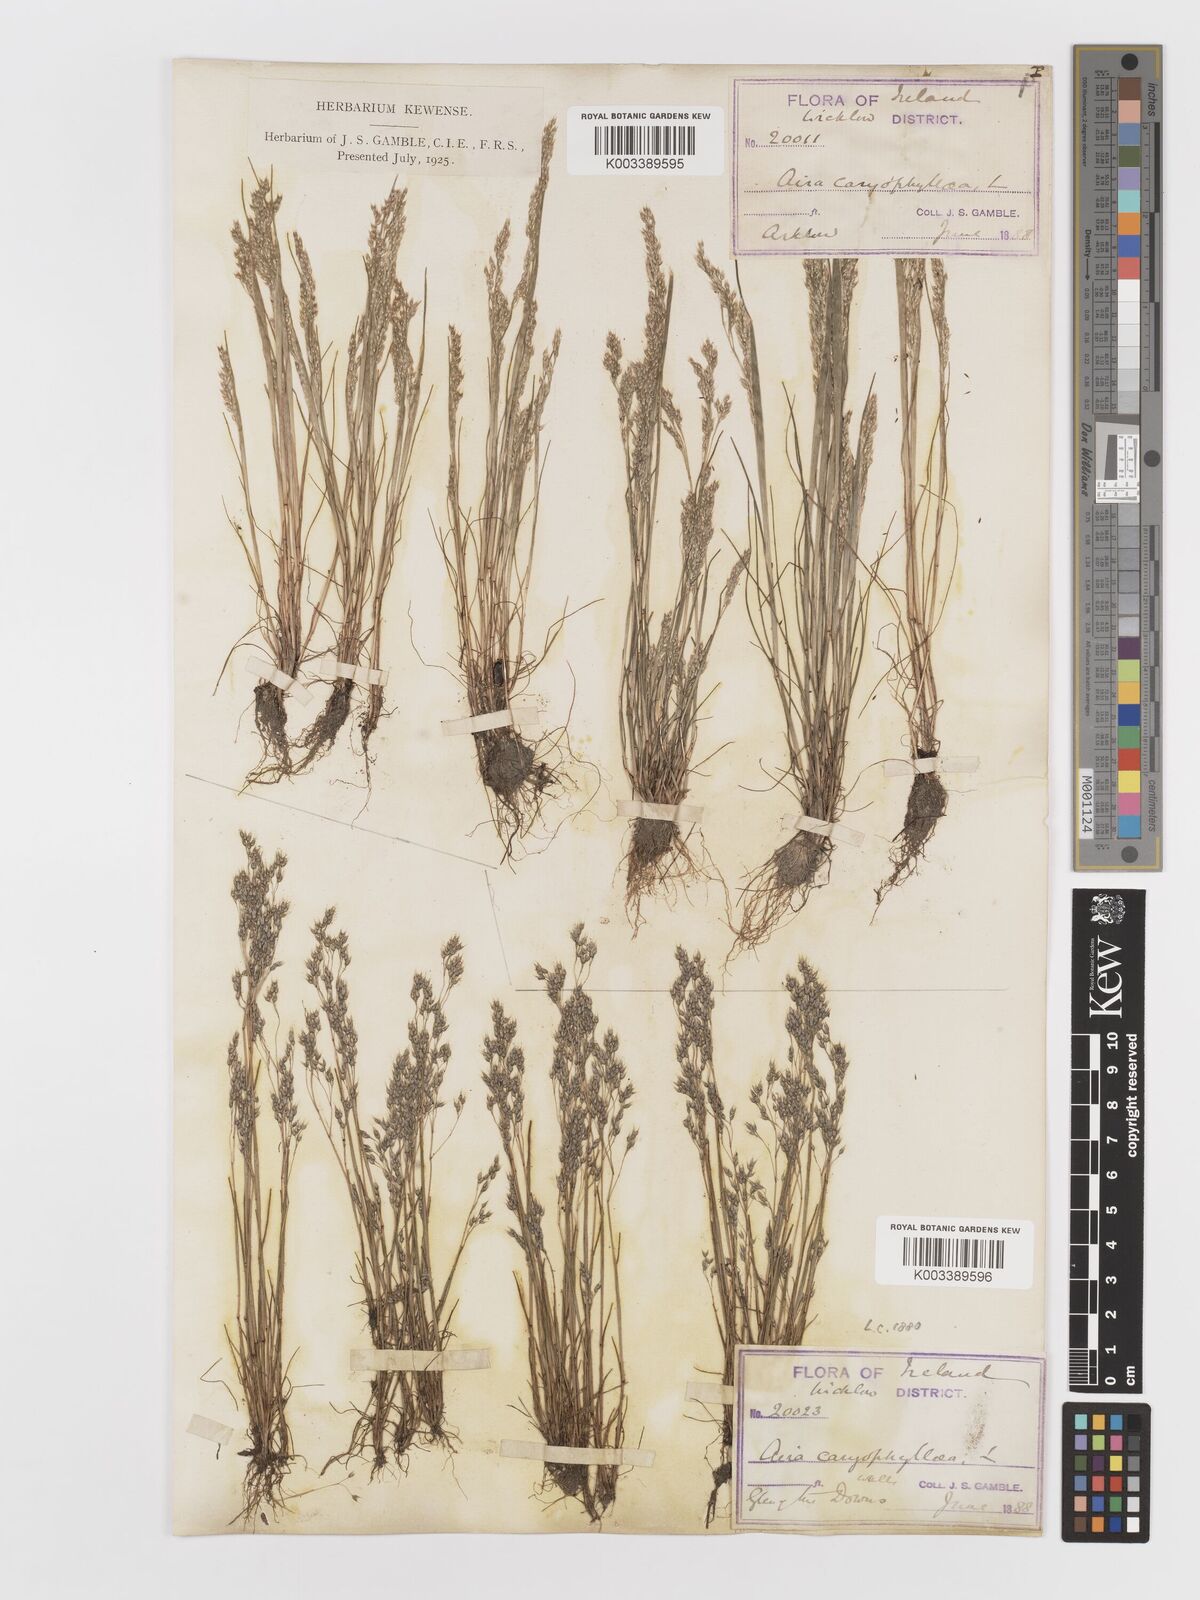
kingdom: Plantae
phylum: Tracheophyta
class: Liliopsida
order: Poales
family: Poaceae
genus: Aira
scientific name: Aira caryophyllea
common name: Silver hairgrass
